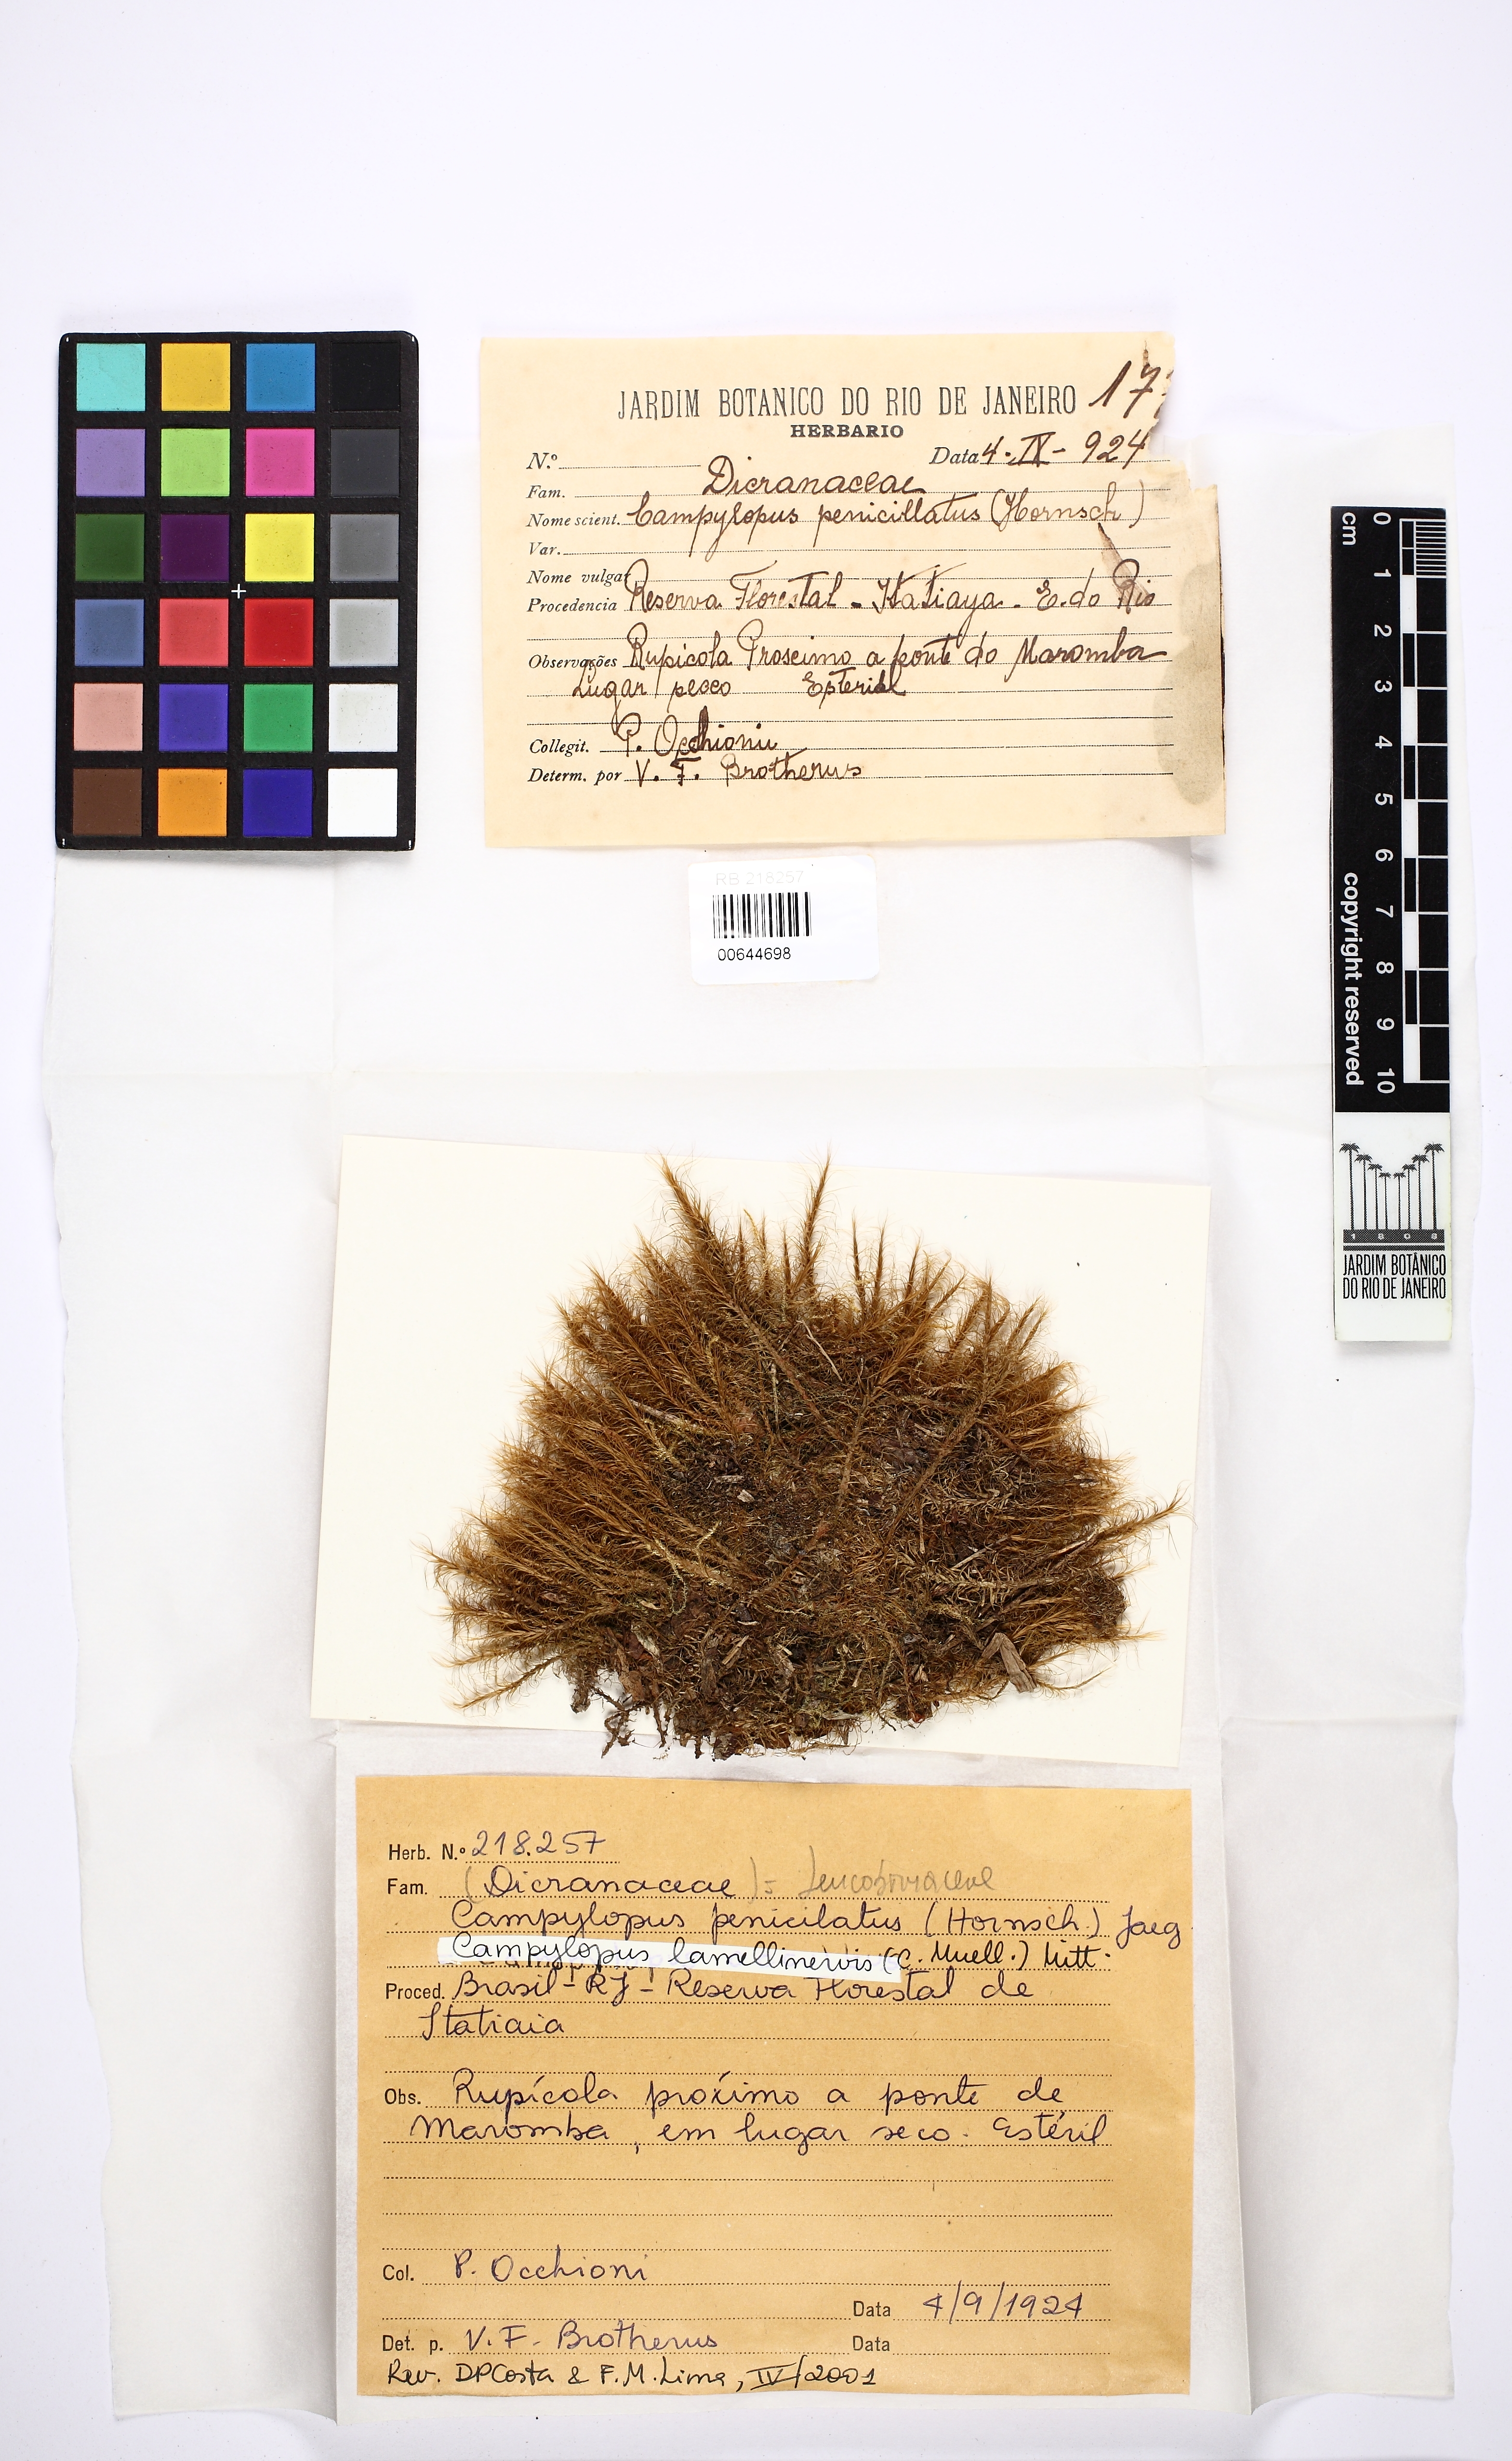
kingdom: Plantae
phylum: Bryophyta
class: Bryopsida
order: Dicranales
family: Leucobryaceae
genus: Campylopus
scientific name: Campylopus lamellinervis
